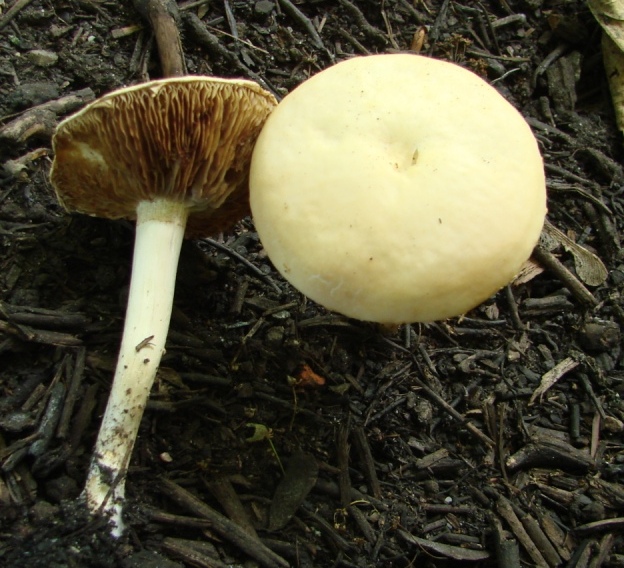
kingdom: Fungi
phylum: Basidiomycota
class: Agaricomycetes
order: Agaricales
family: Strophariaceae
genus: Agrocybe
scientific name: Agrocybe dura
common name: fastkødet agerhat
